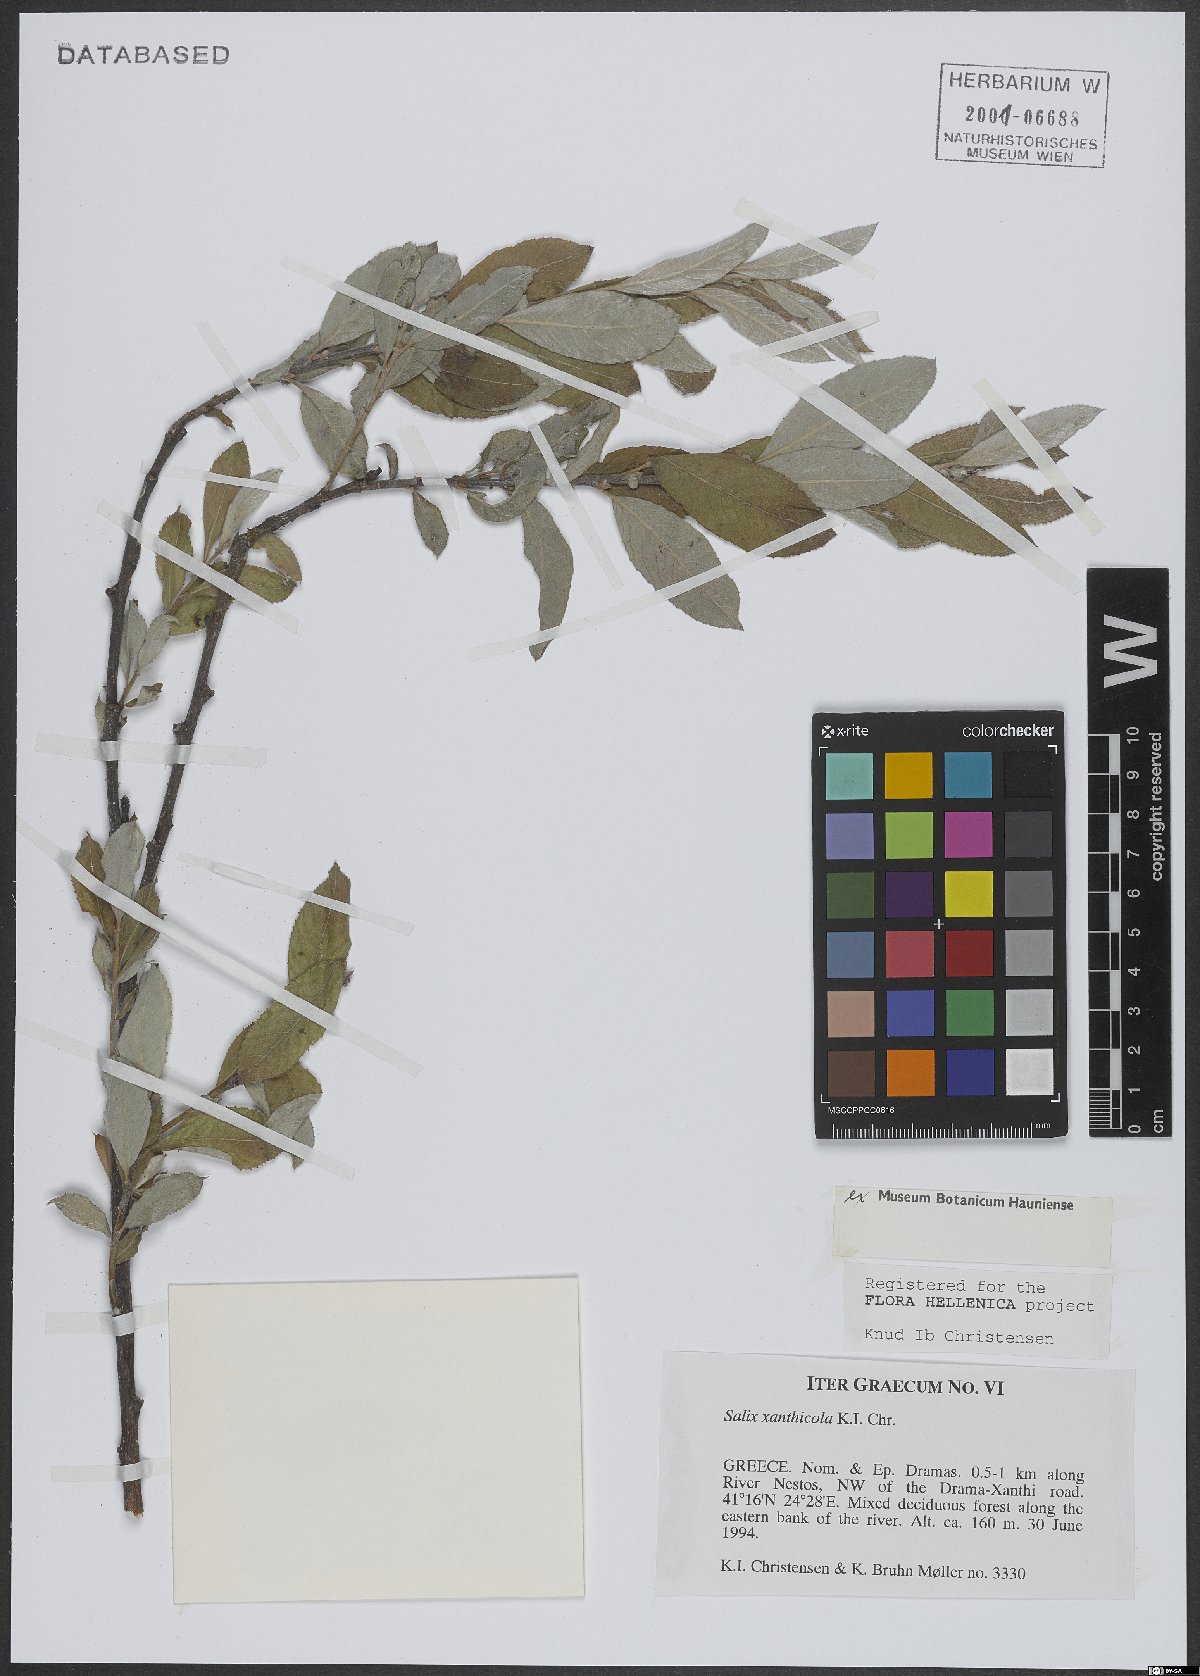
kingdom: Plantae
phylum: Tracheophyta
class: Magnoliopsida
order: Malpighiales
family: Salicaceae
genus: Salix
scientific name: Salix xanthicola
